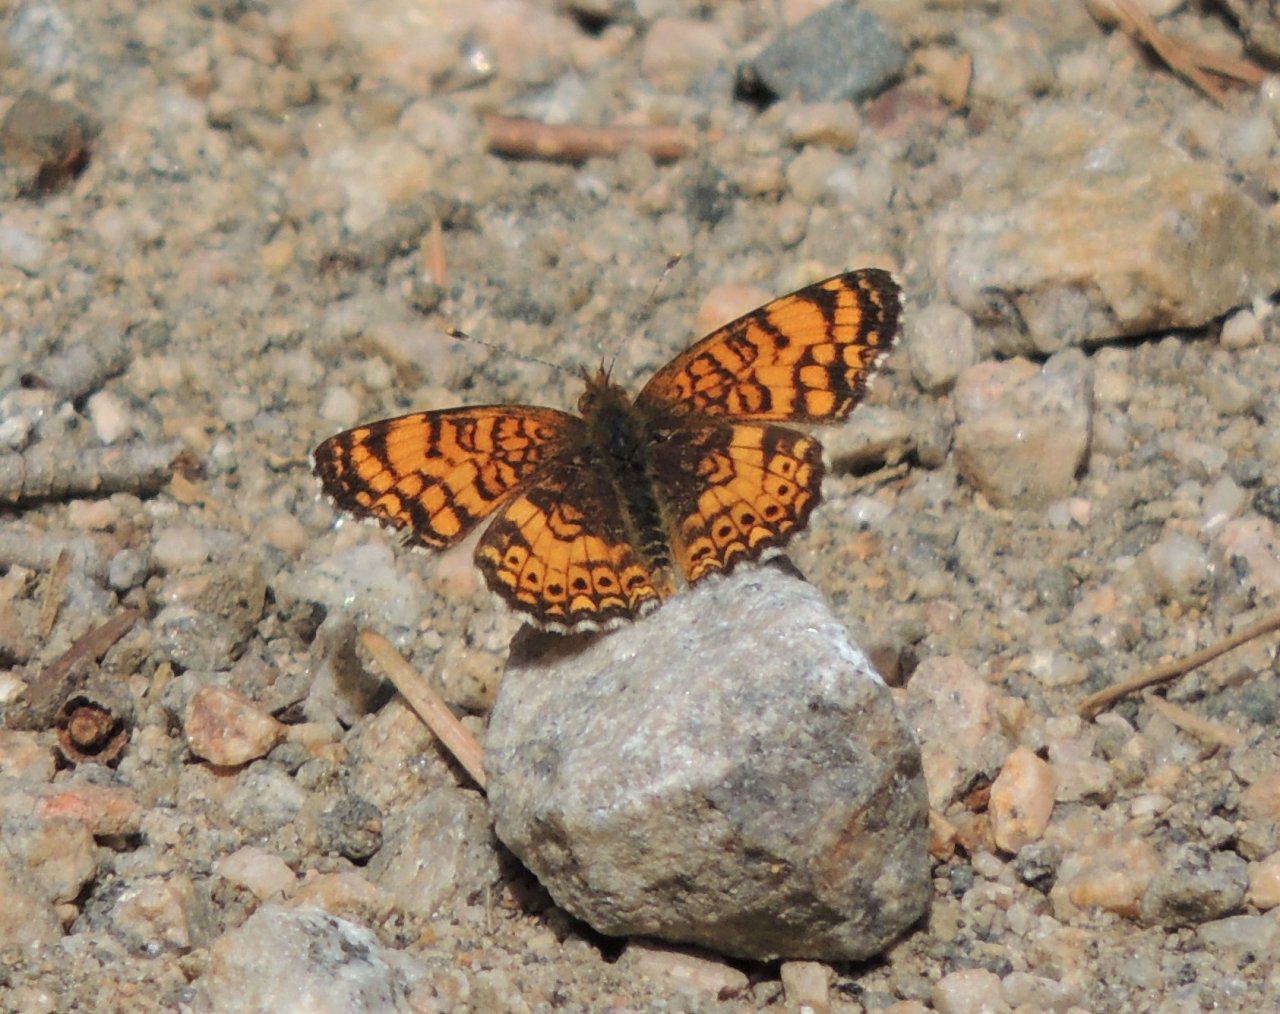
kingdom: Animalia
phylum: Arthropoda
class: Insecta
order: Lepidoptera
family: Nymphalidae
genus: Eresia
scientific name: Eresia aveyrona
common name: Mylitta Crescent
